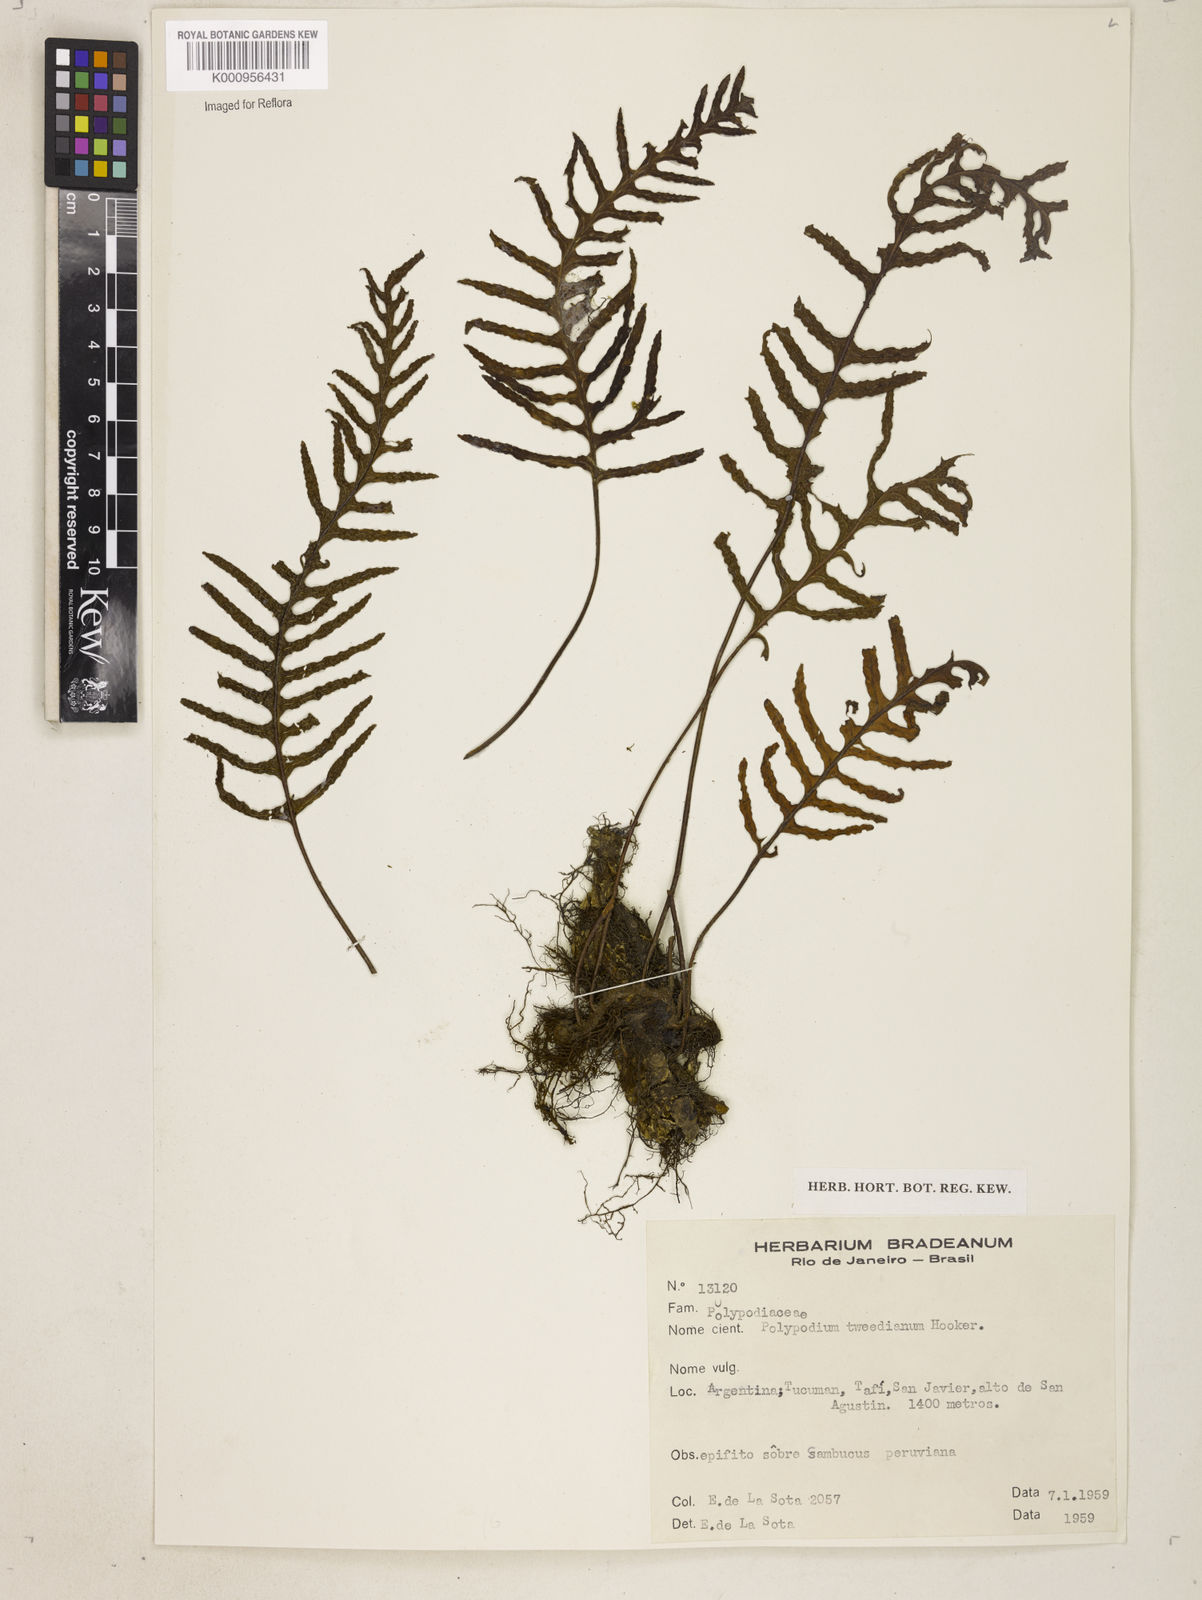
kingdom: Plantae
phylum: Tracheophyta
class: Polypodiopsida
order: Polypodiales
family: Polypodiaceae
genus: Polypodium
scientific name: Polypodium
